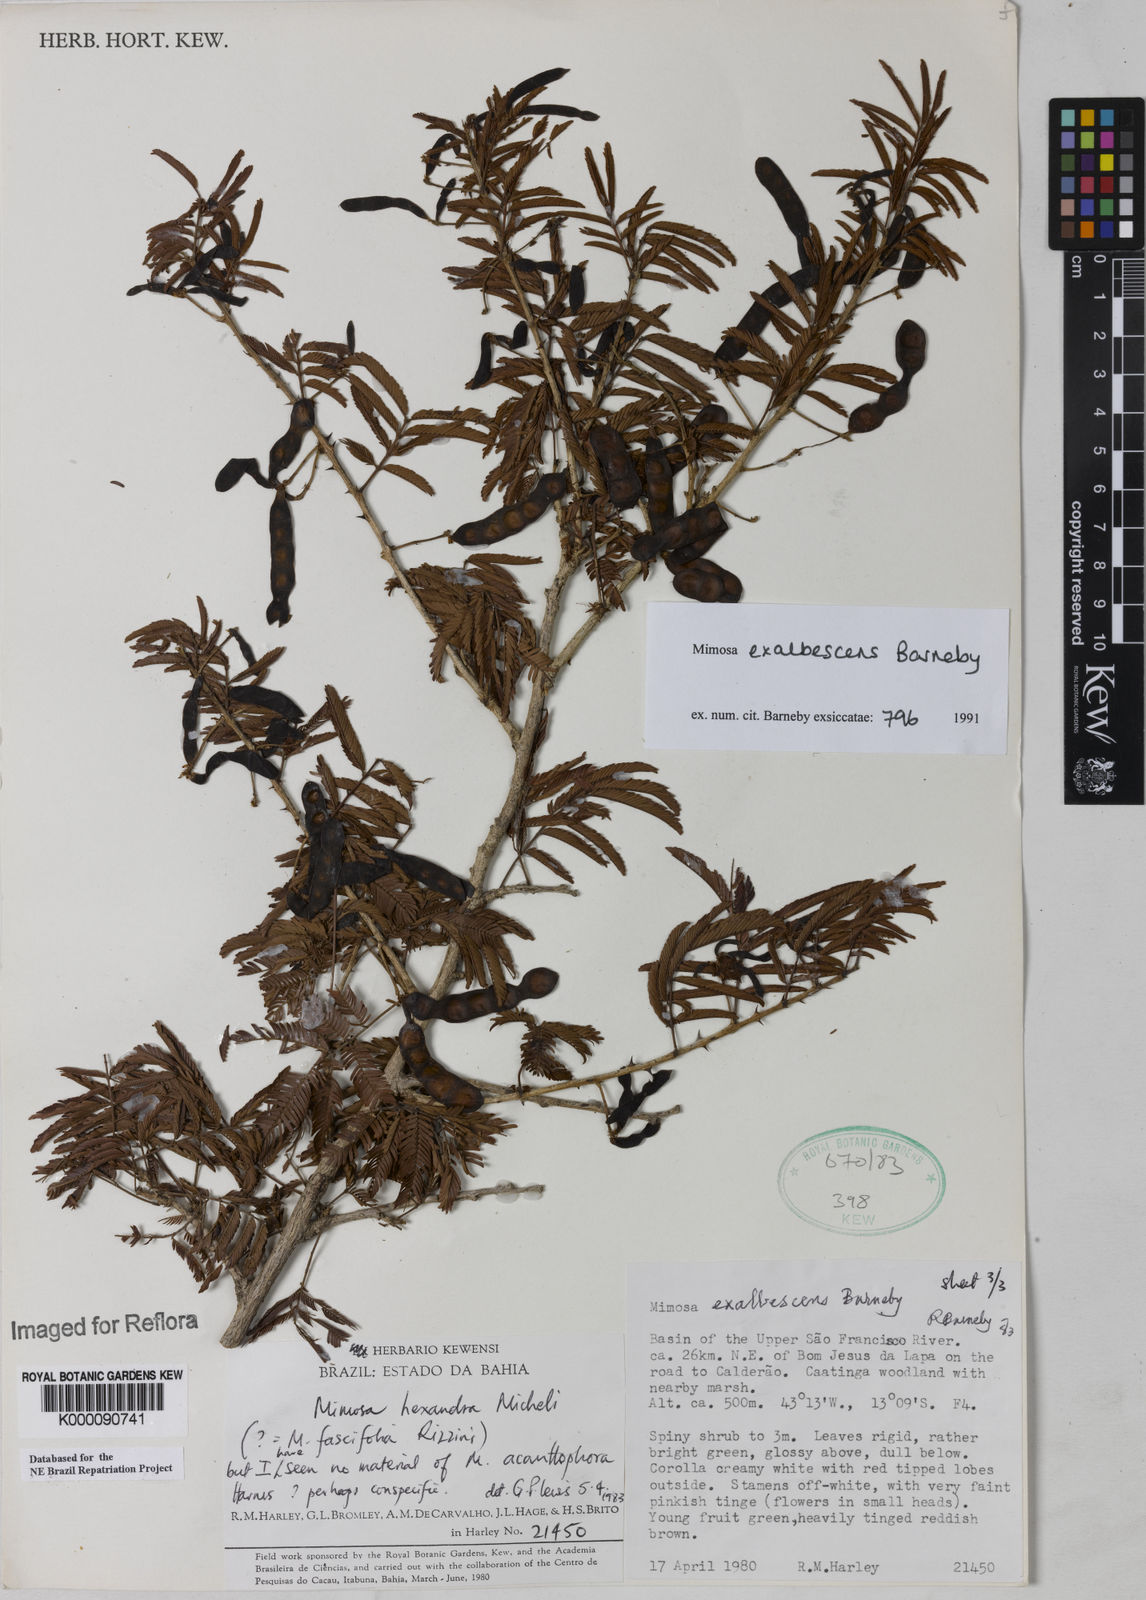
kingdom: Plantae
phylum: Tracheophyta
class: Magnoliopsida
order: Fabales
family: Fabaceae
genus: Mimosa
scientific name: Mimosa exalbescens
